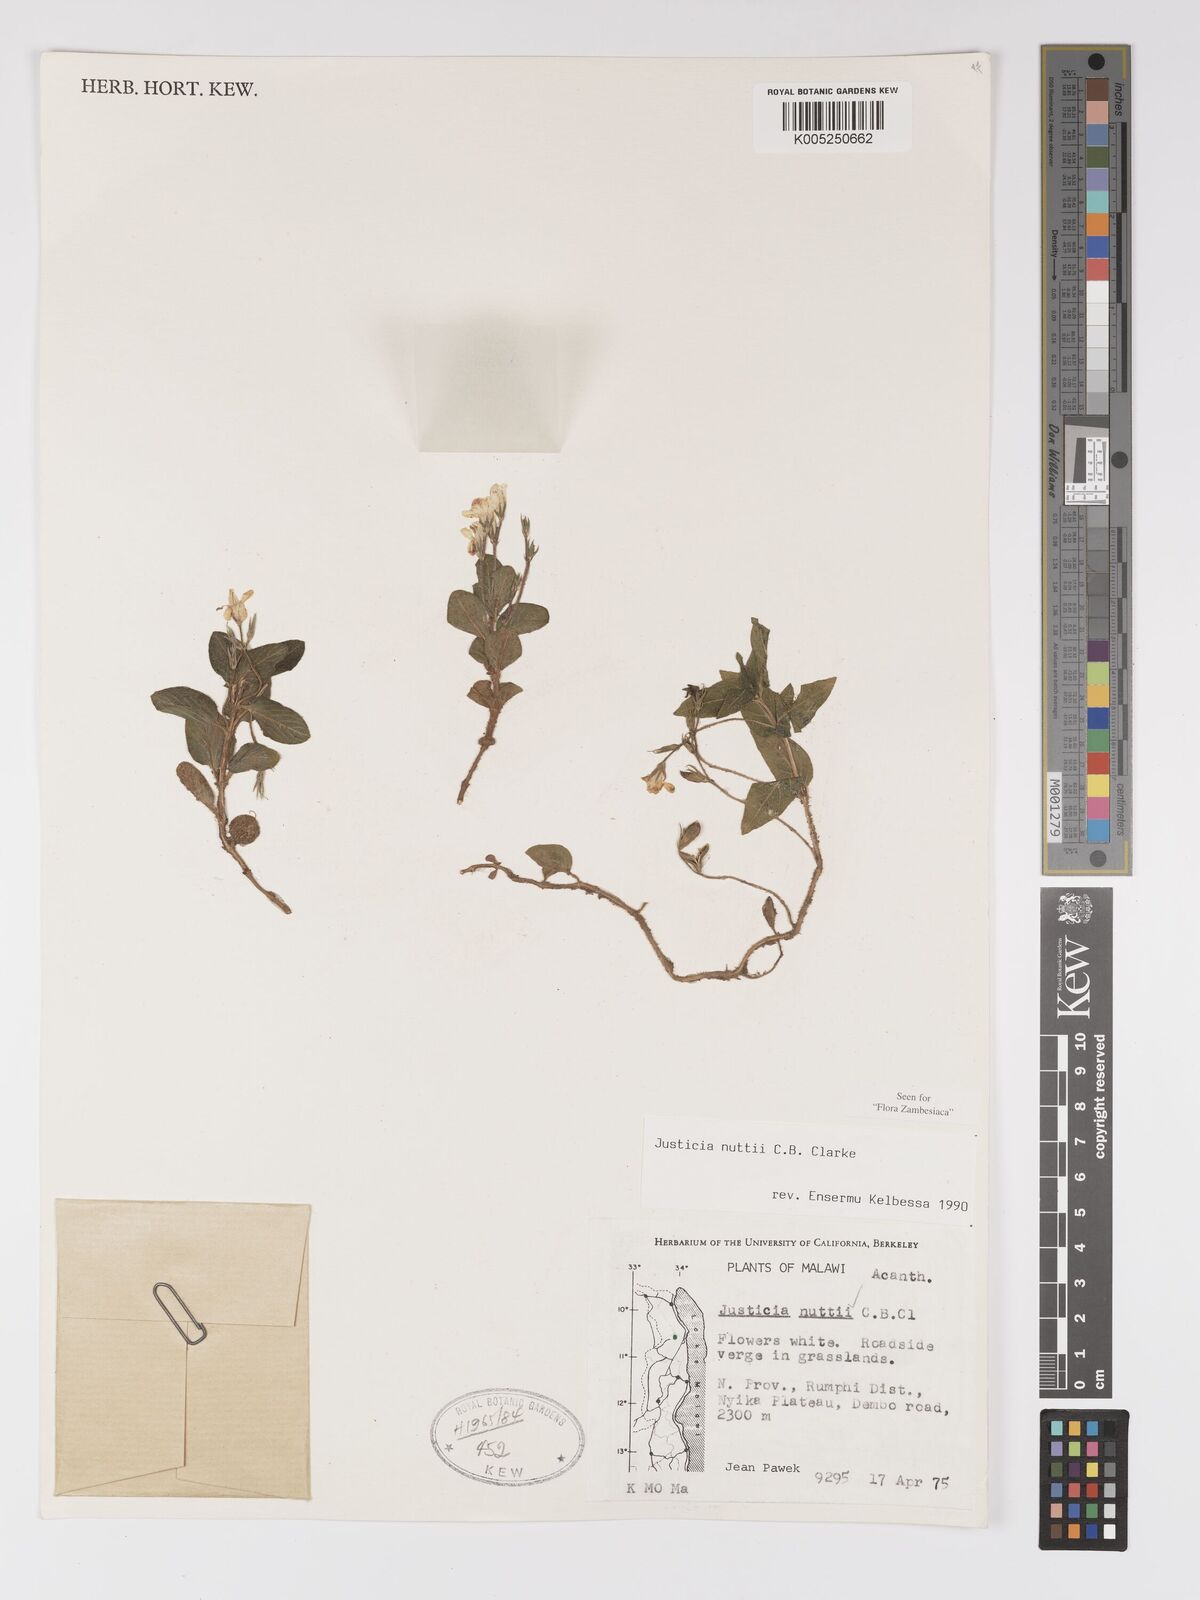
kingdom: Plantae
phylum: Tracheophyta
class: Magnoliopsida
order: Lamiales
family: Acanthaceae
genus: Justicia
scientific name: Justicia nuttii
